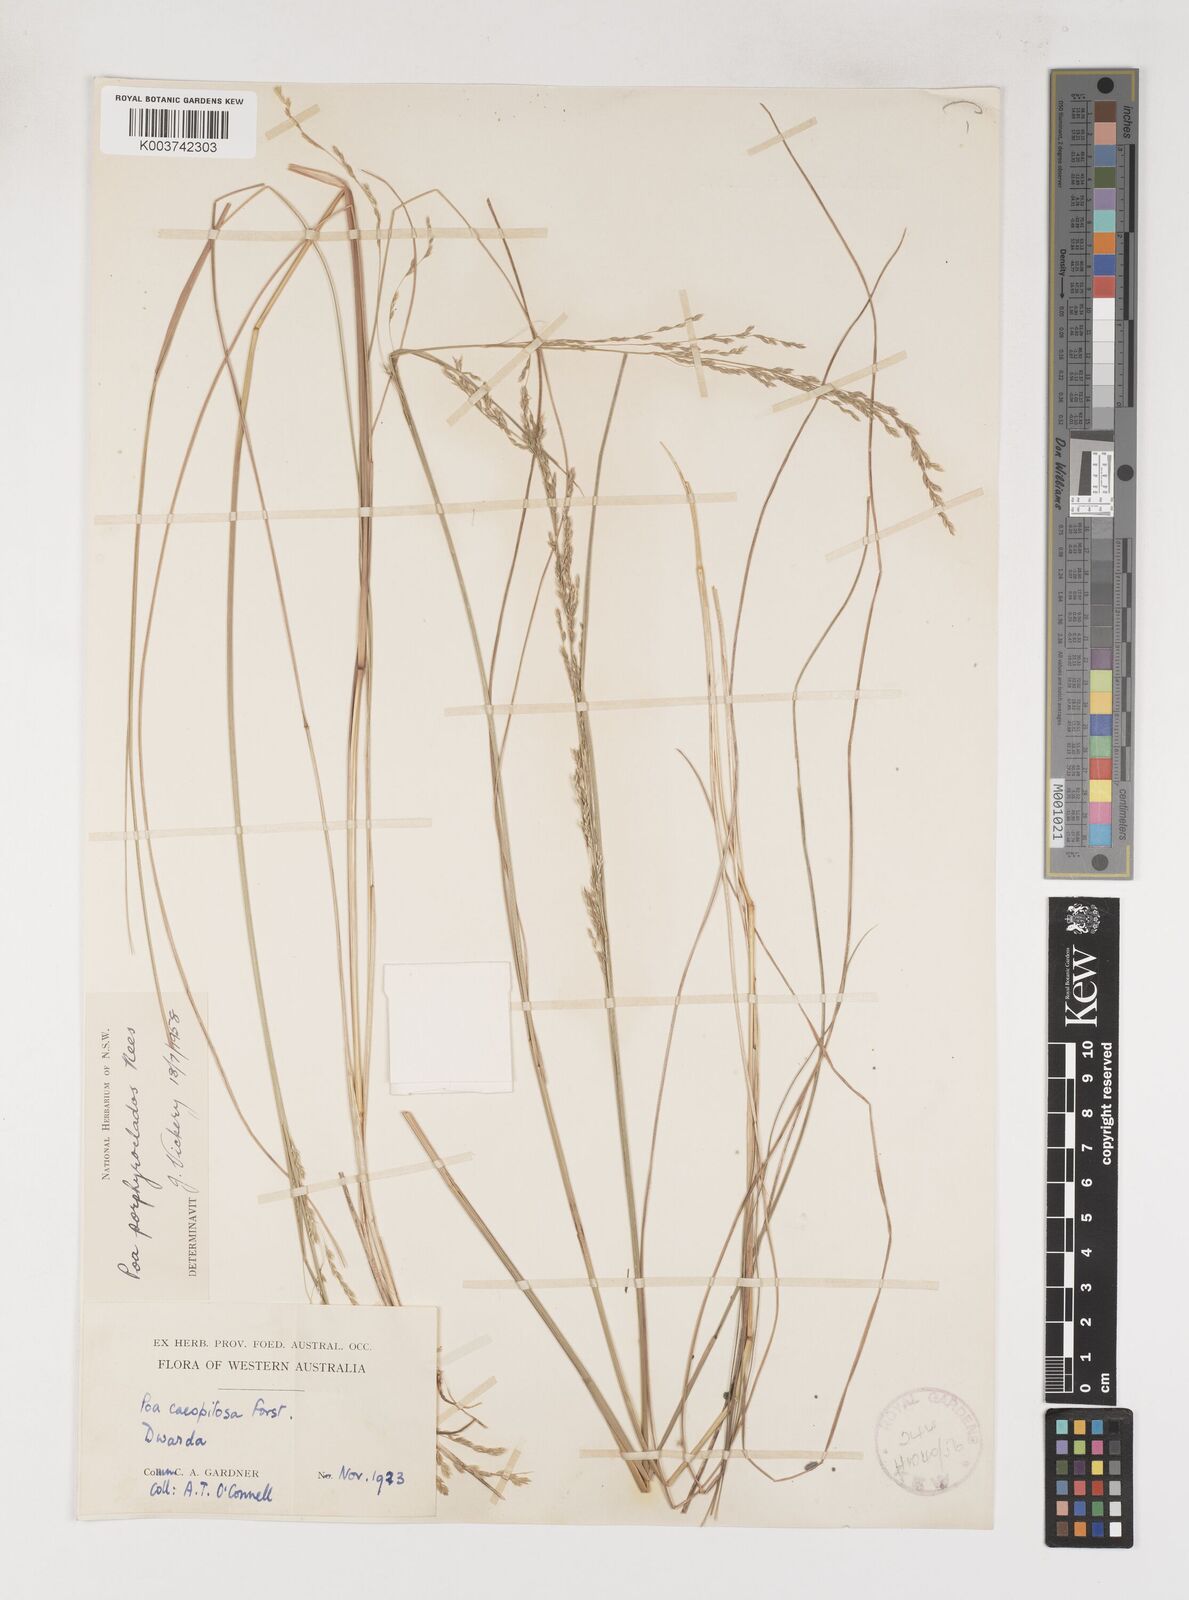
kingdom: Plantae
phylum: Tracheophyta
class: Liliopsida
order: Poales
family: Poaceae
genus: Poa
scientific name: Poa porphyroclados
